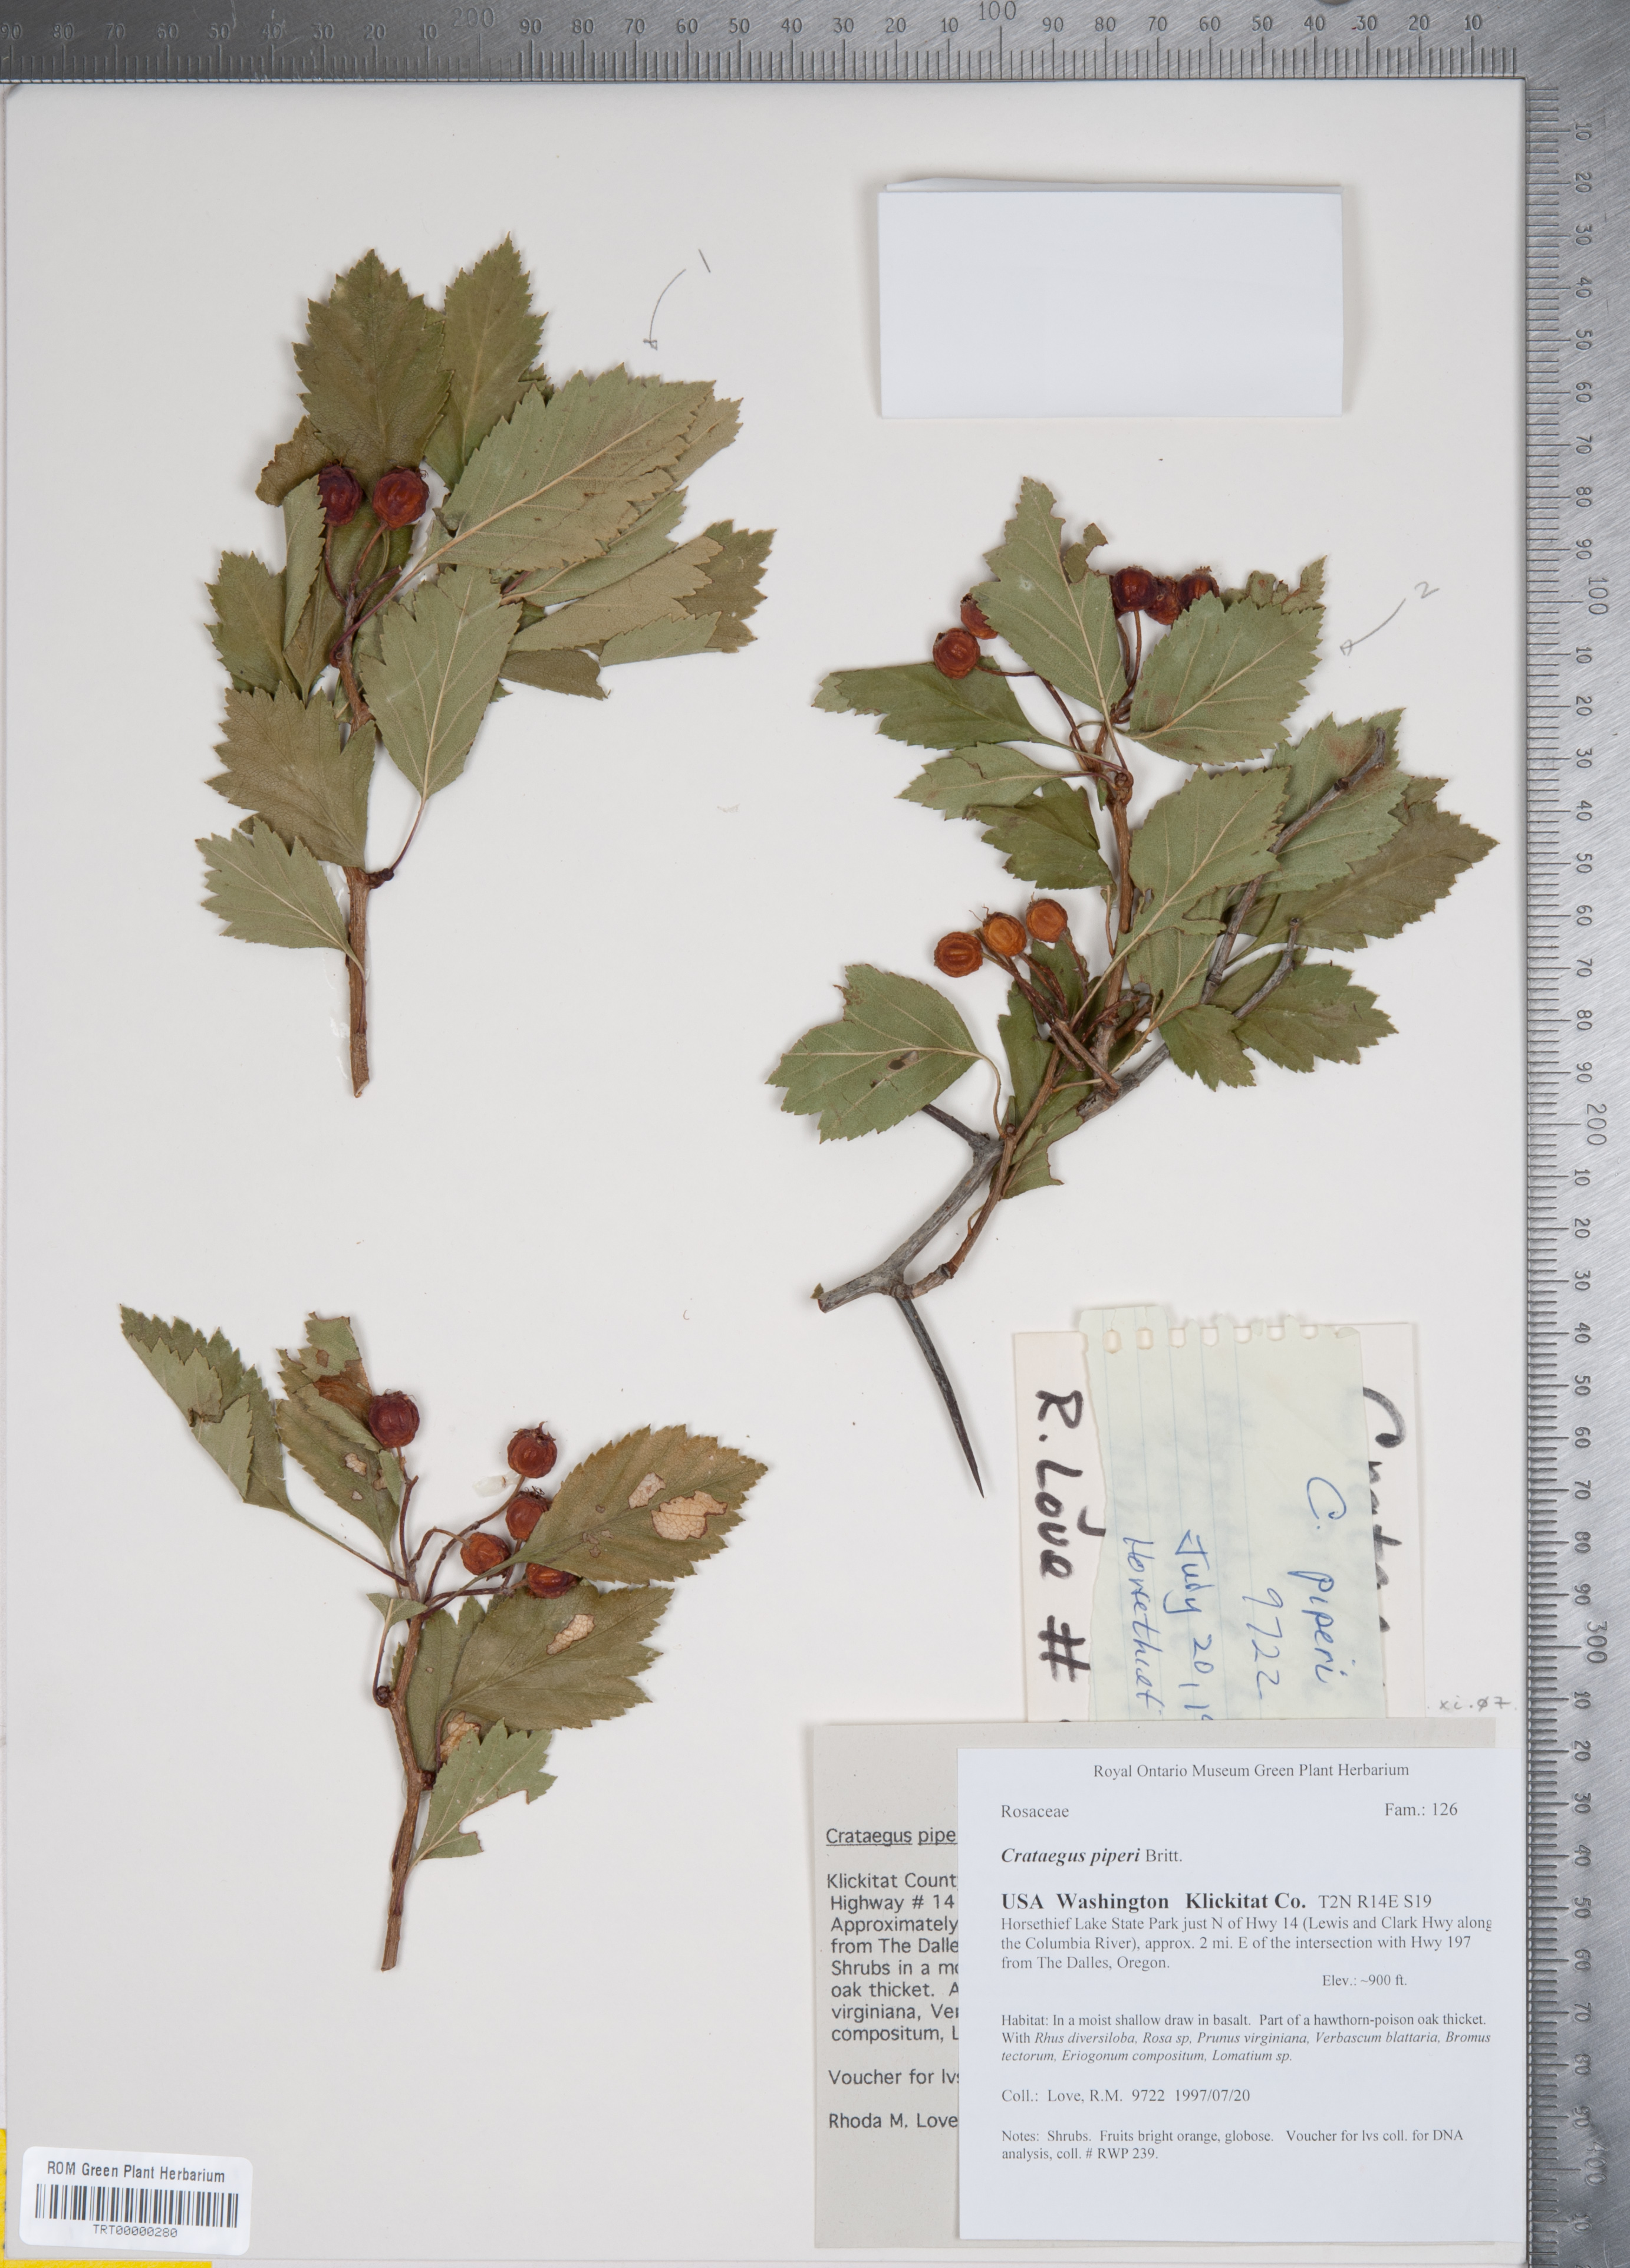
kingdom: Plantae
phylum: Tracheophyta
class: Magnoliopsida
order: Rosales
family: Rosaceae
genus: Crataegus
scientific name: Crataegus piperi
